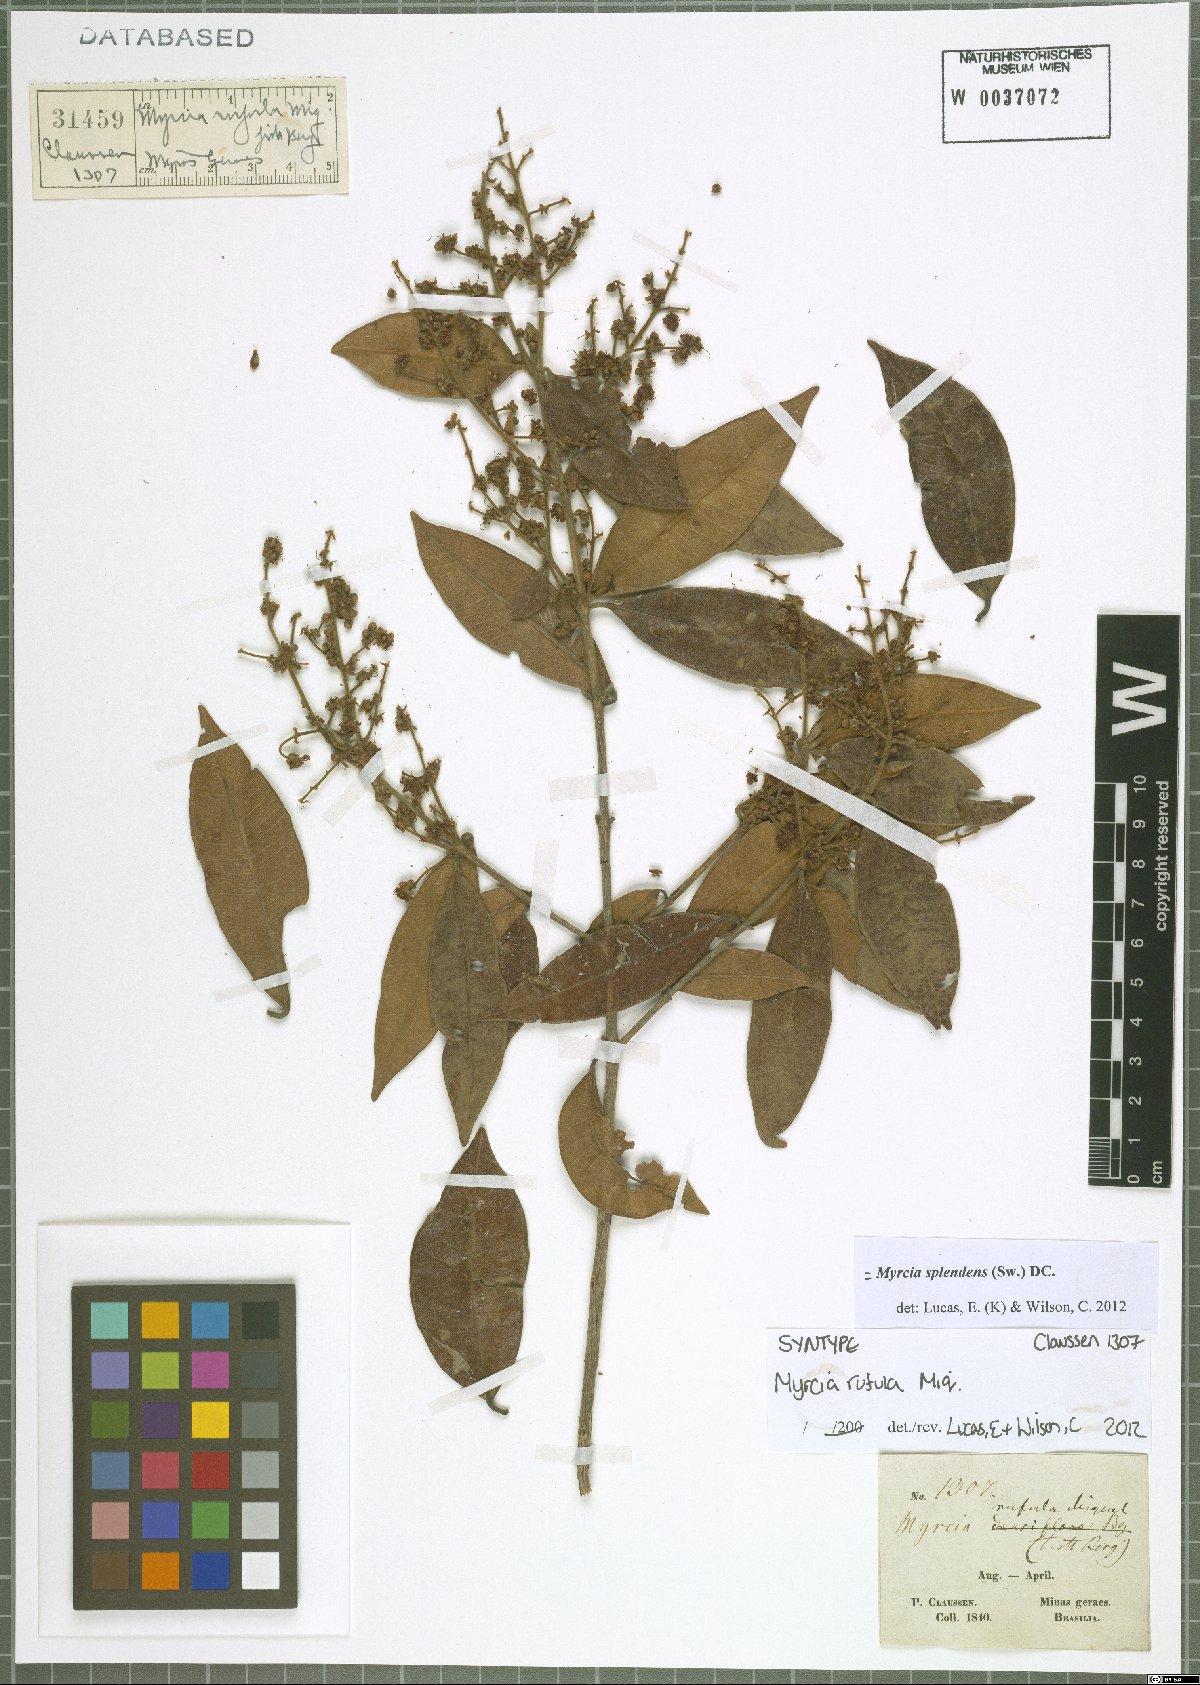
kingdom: Plantae
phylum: Tracheophyta
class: Magnoliopsida
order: Myrtales
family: Myrtaceae
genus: Myrcia
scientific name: Myrcia splendens
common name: Surinam cherry
